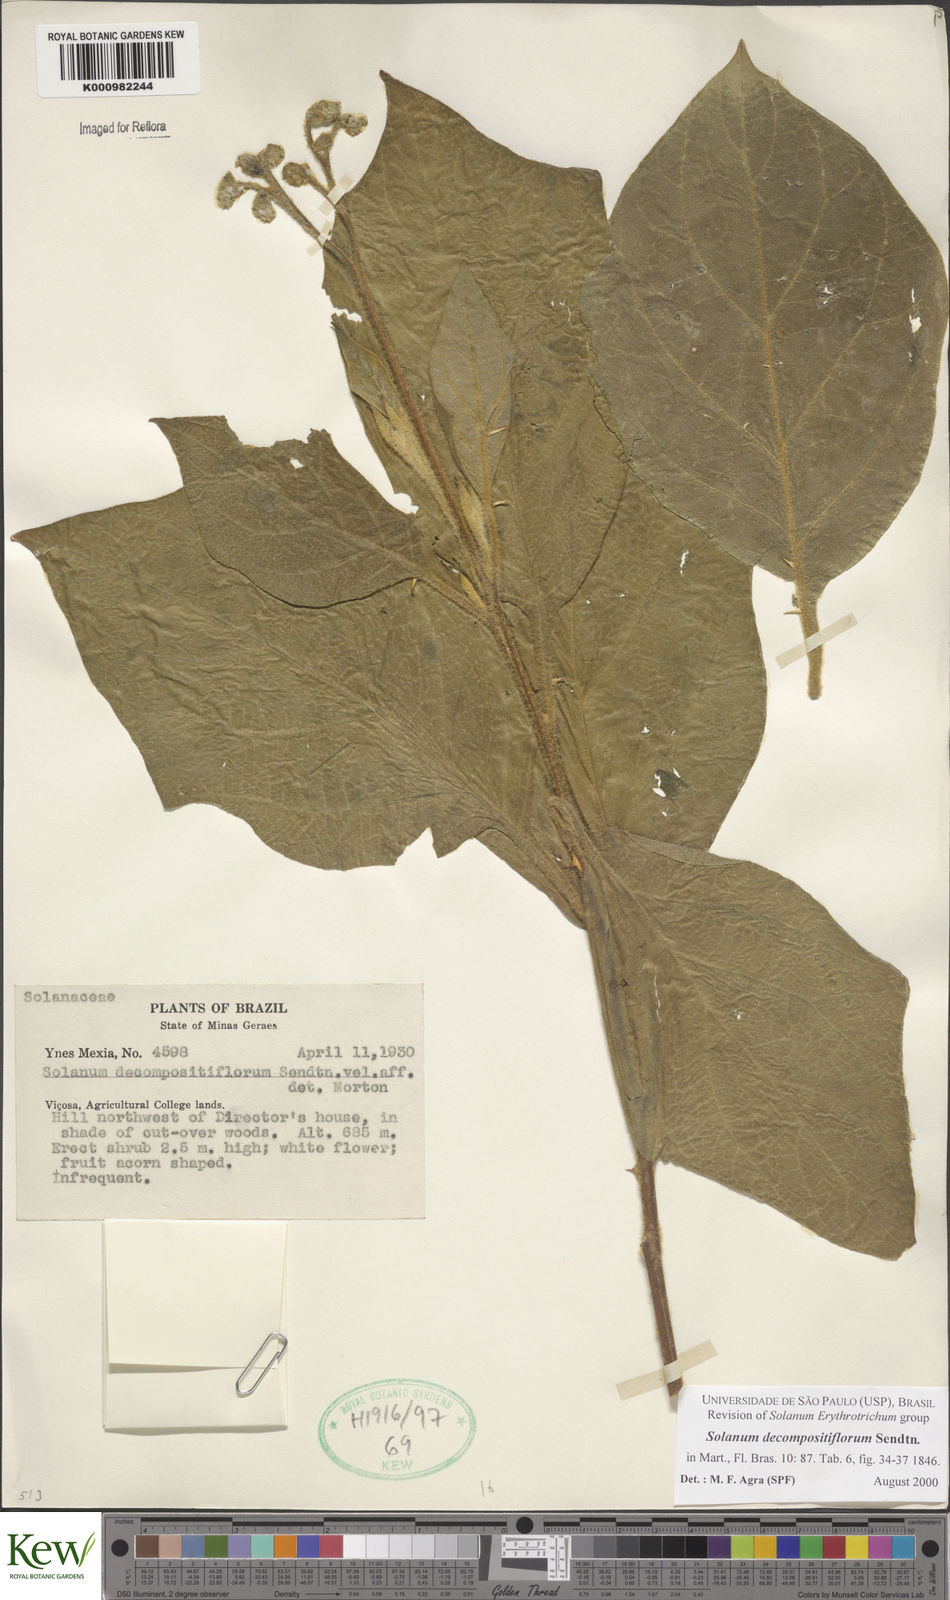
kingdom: Plantae
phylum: Tracheophyta
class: Magnoliopsida
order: Solanales
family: Solanaceae
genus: Solanum
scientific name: Solanum decompositiflorum
